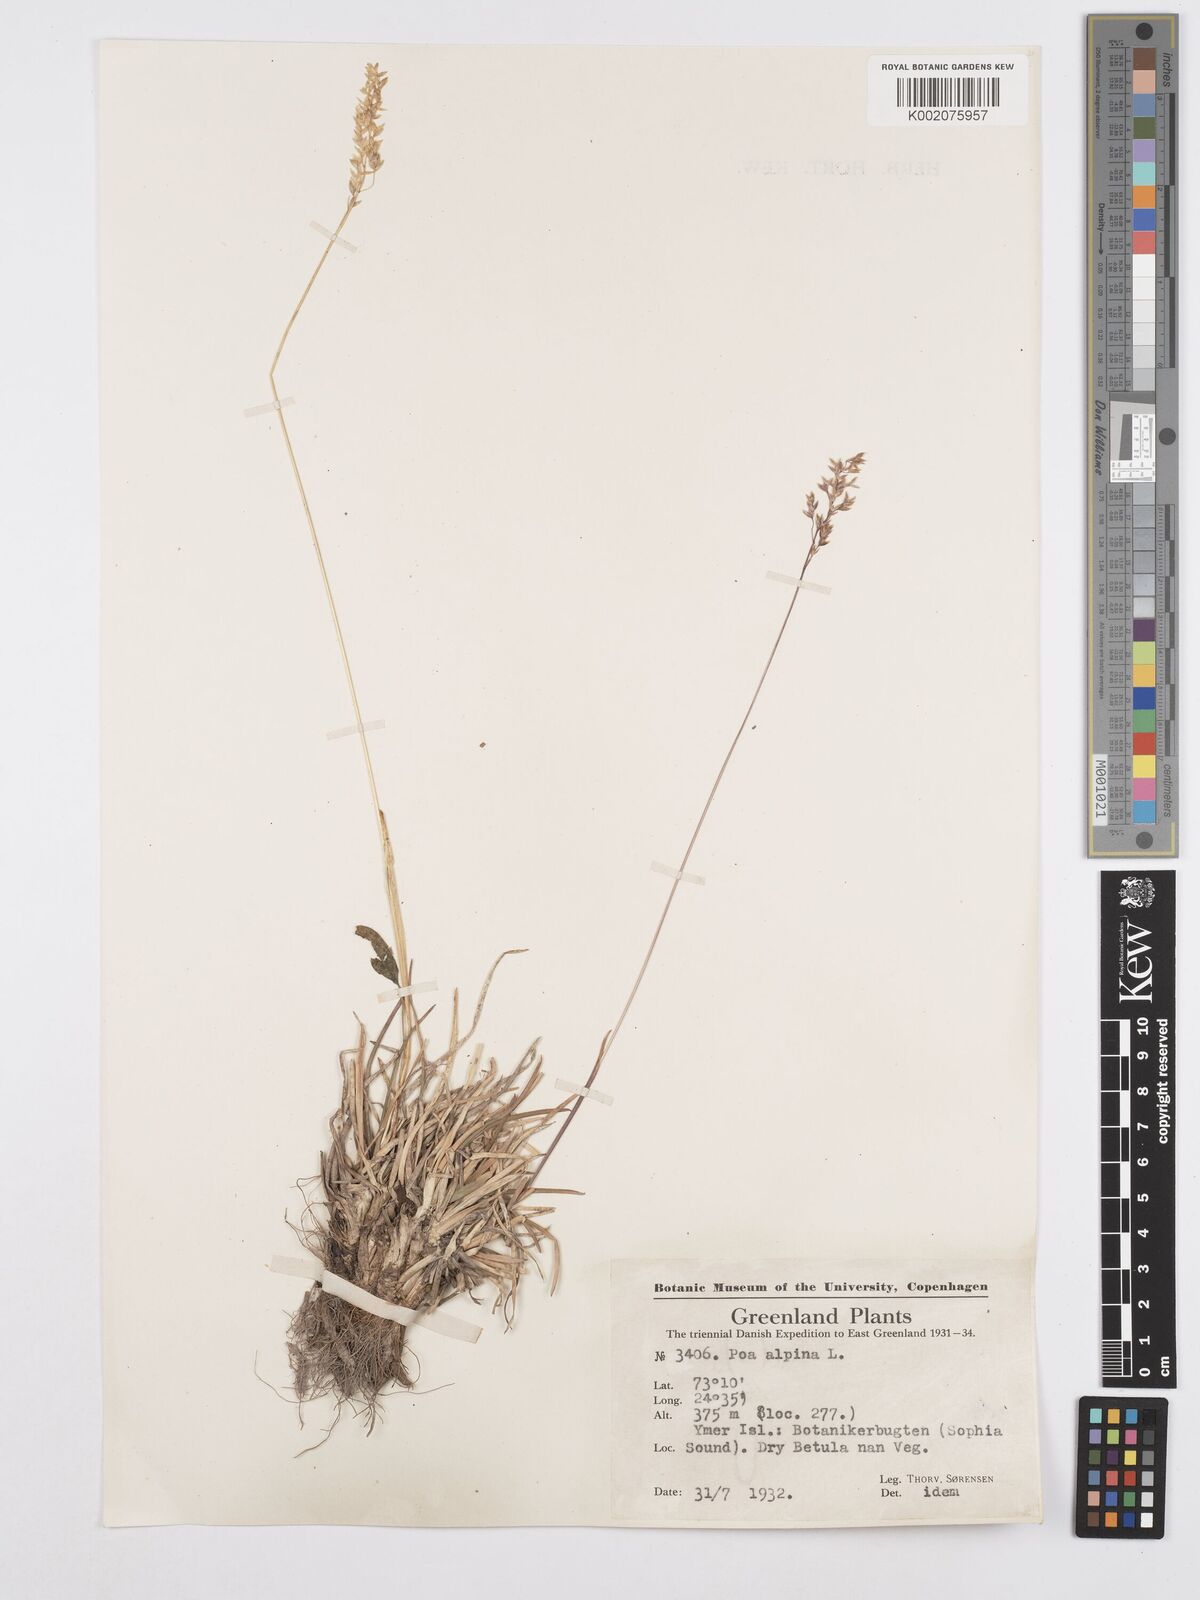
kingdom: Plantae
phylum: Tracheophyta
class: Liliopsida
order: Poales
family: Poaceae
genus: Poa
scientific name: Poa alpina
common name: Alpine bluegrass
